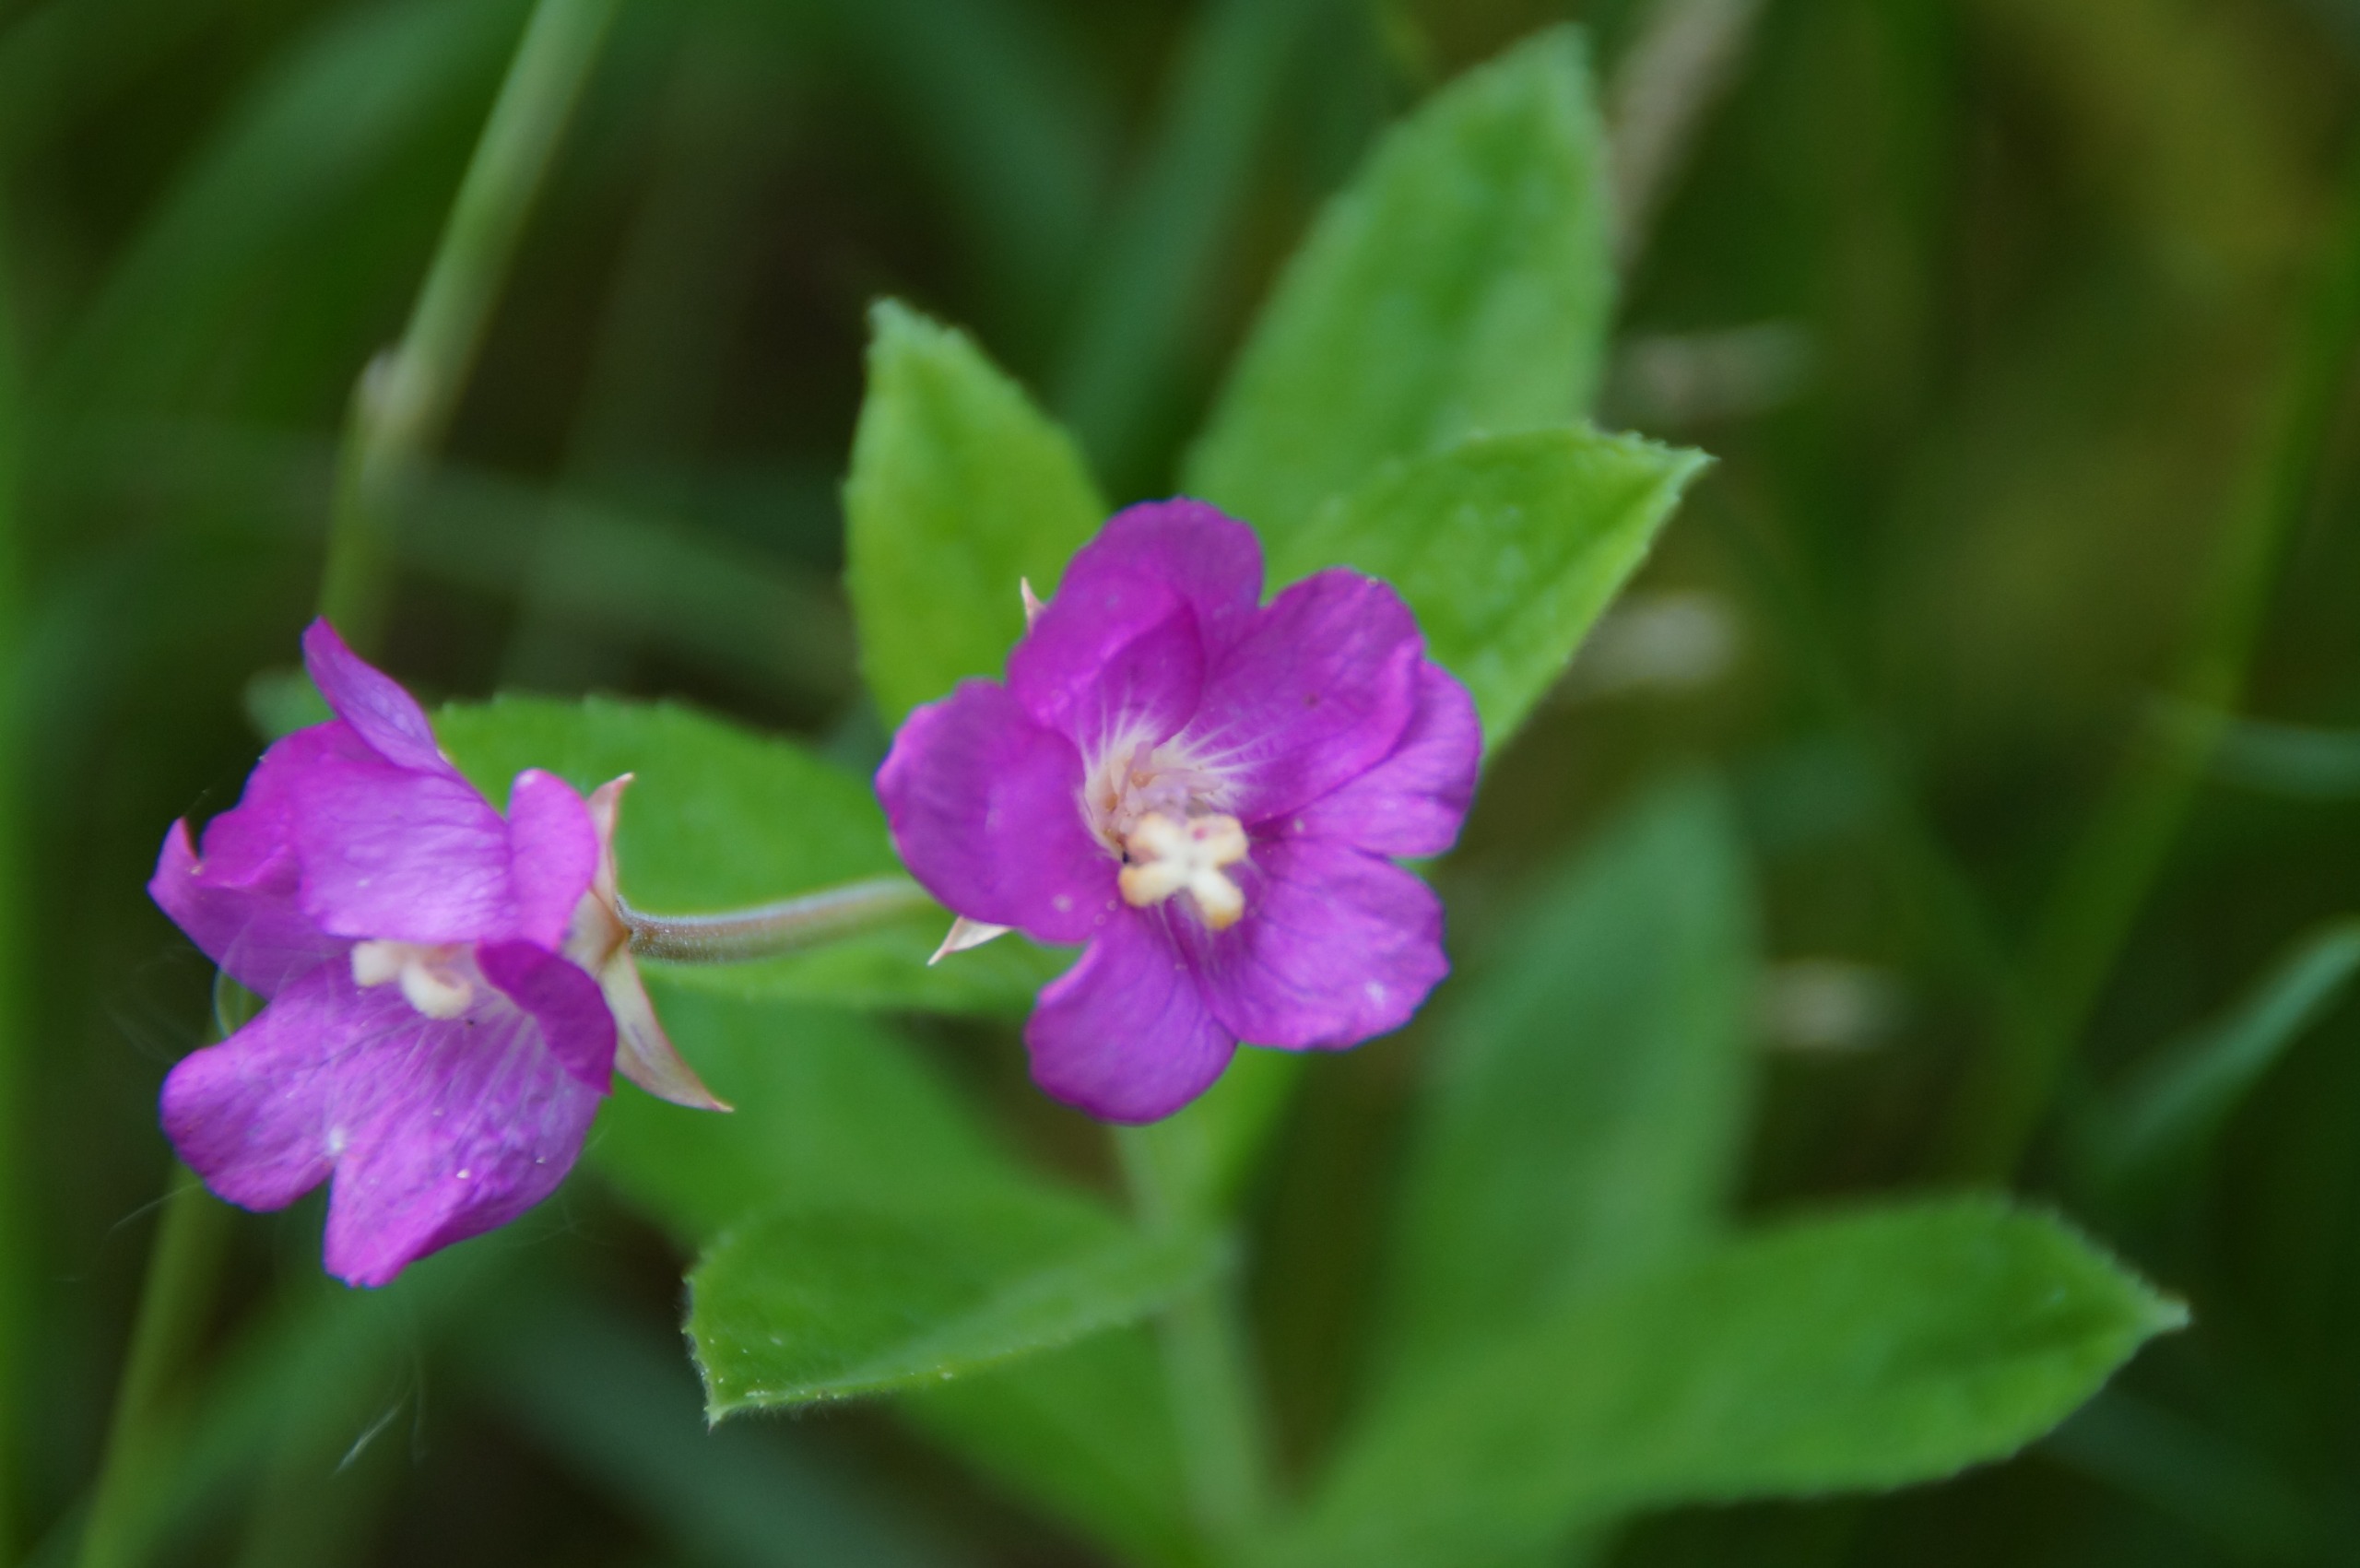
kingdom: Plantae
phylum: Tracheophyta
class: Magnoliopsida
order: Myrtales
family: Onagraceae
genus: Epilobium
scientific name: Epilobium hirsutum
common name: Lådden dueurt
